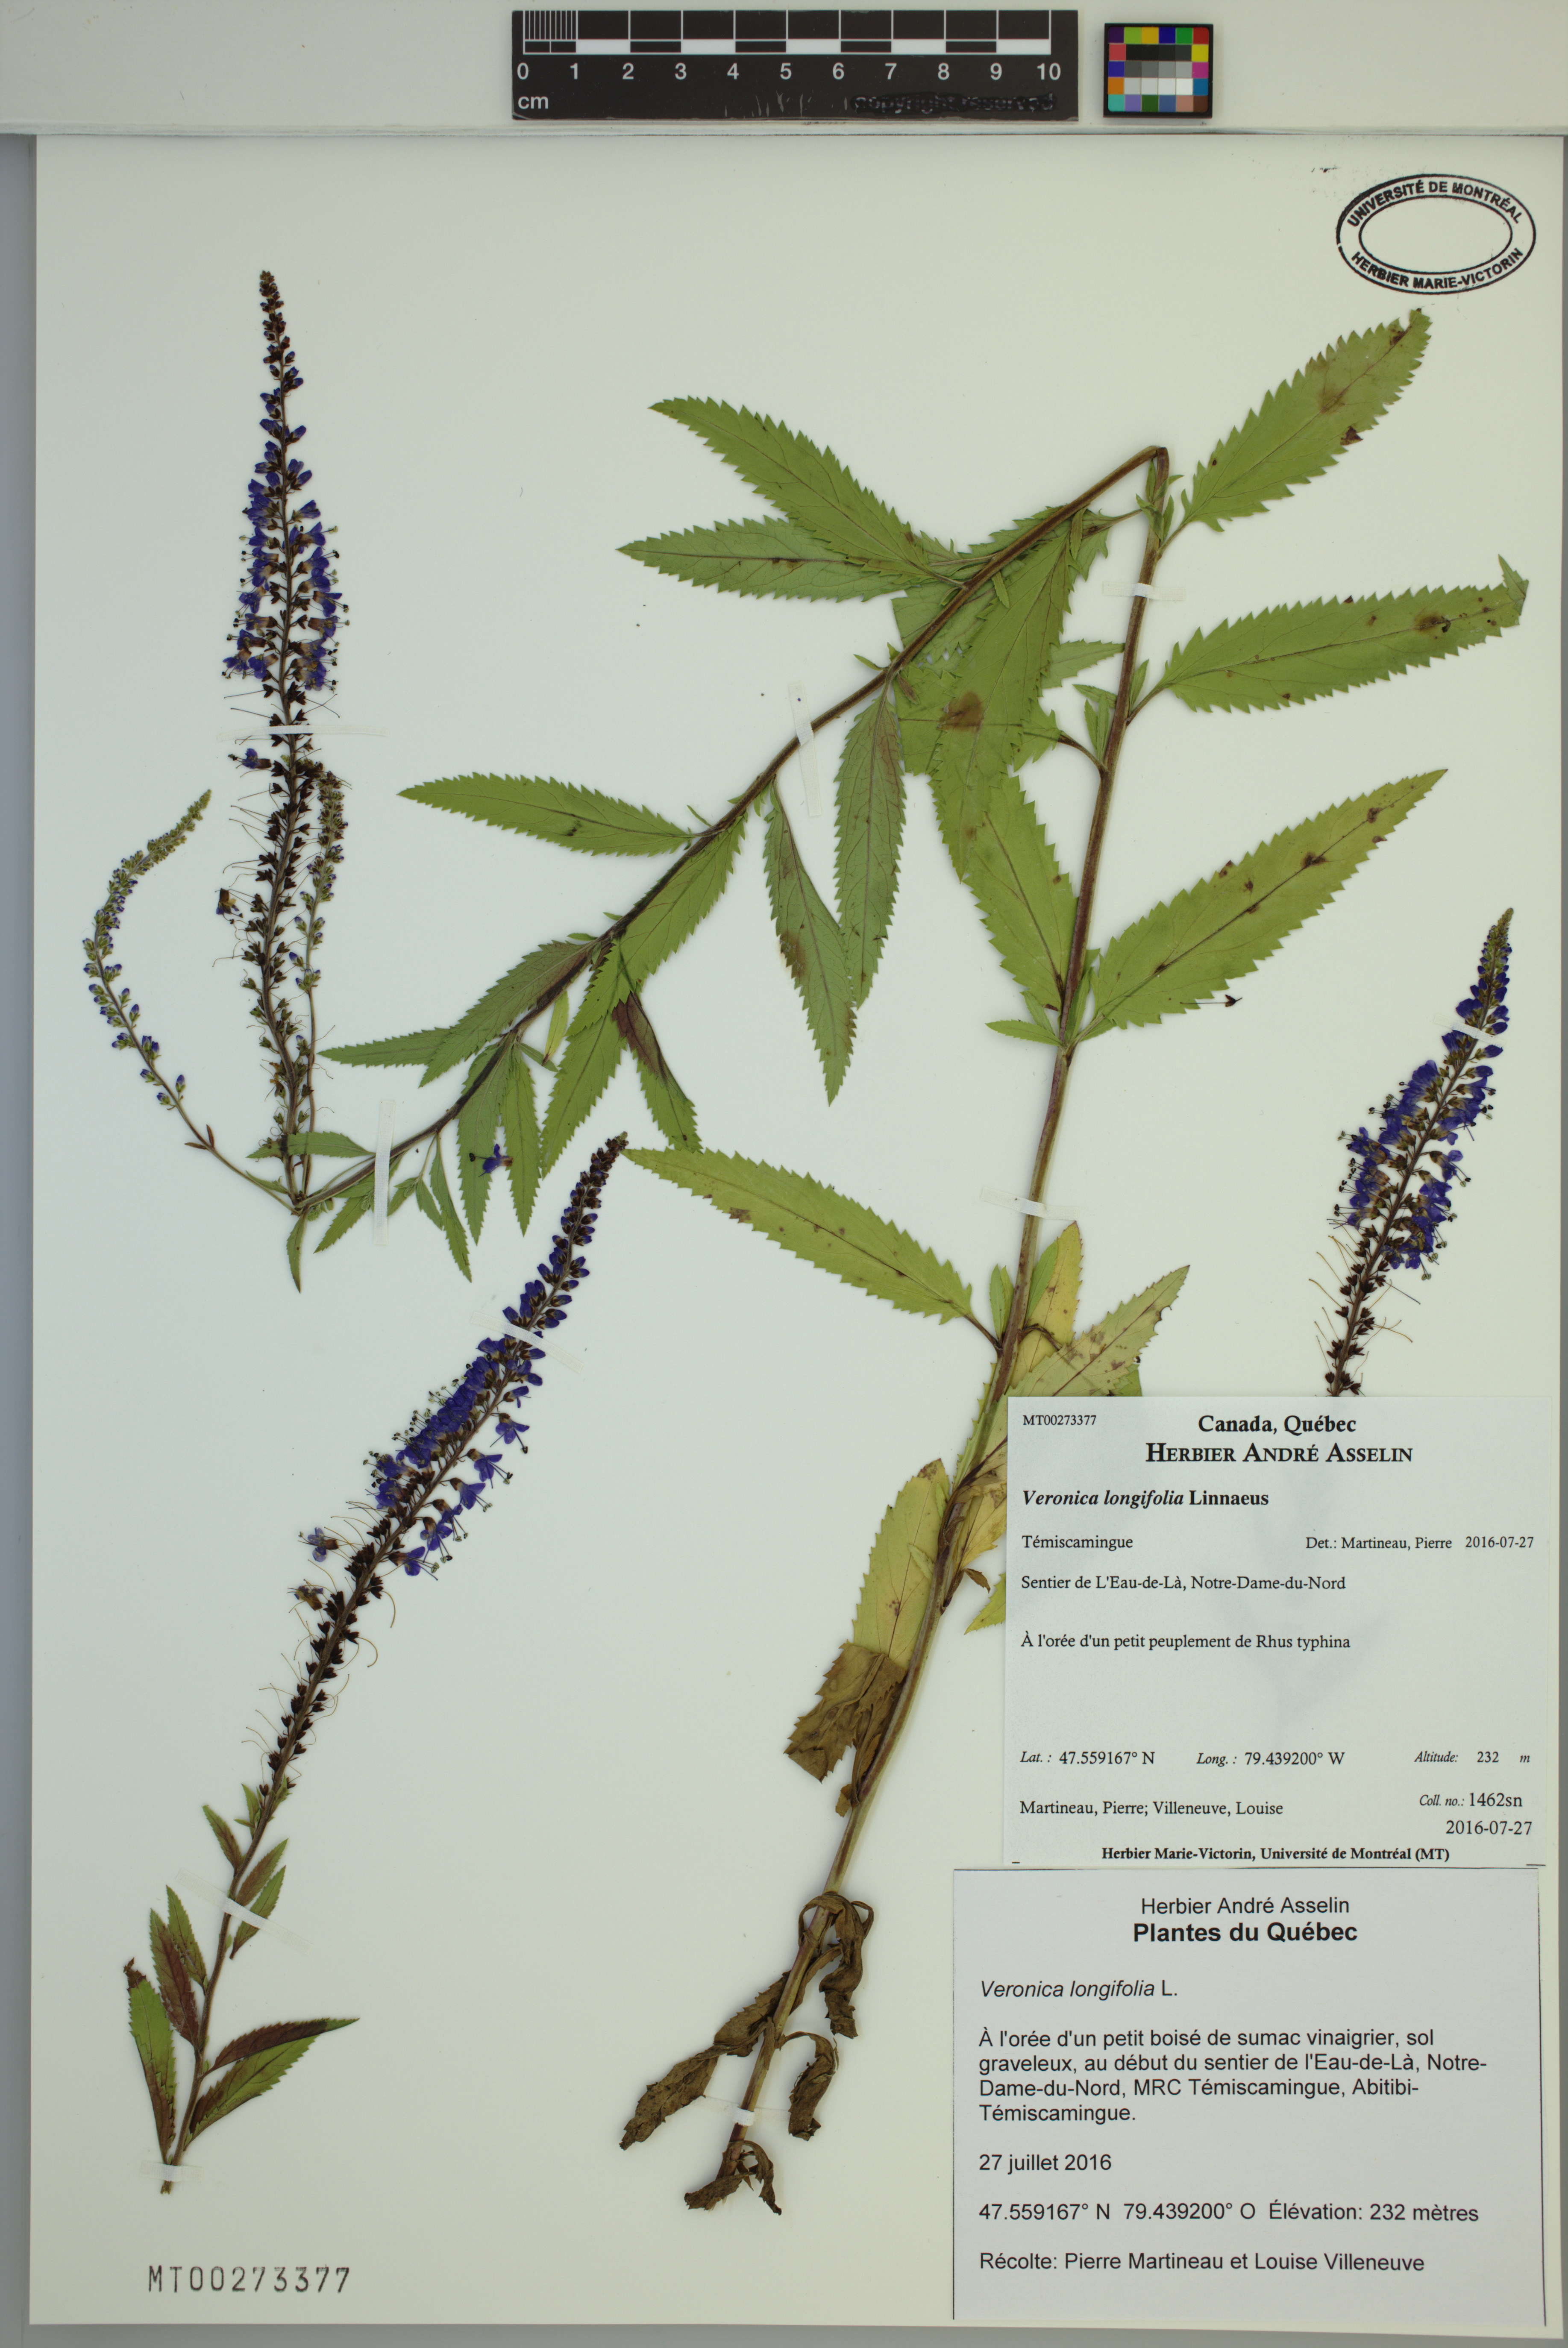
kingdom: Plantae
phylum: Tracheophyta
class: Magnoliopsida
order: Lamiales
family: Plantaginaceae
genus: Veronica
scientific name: Veronica longifolia
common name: Garden speedwell
